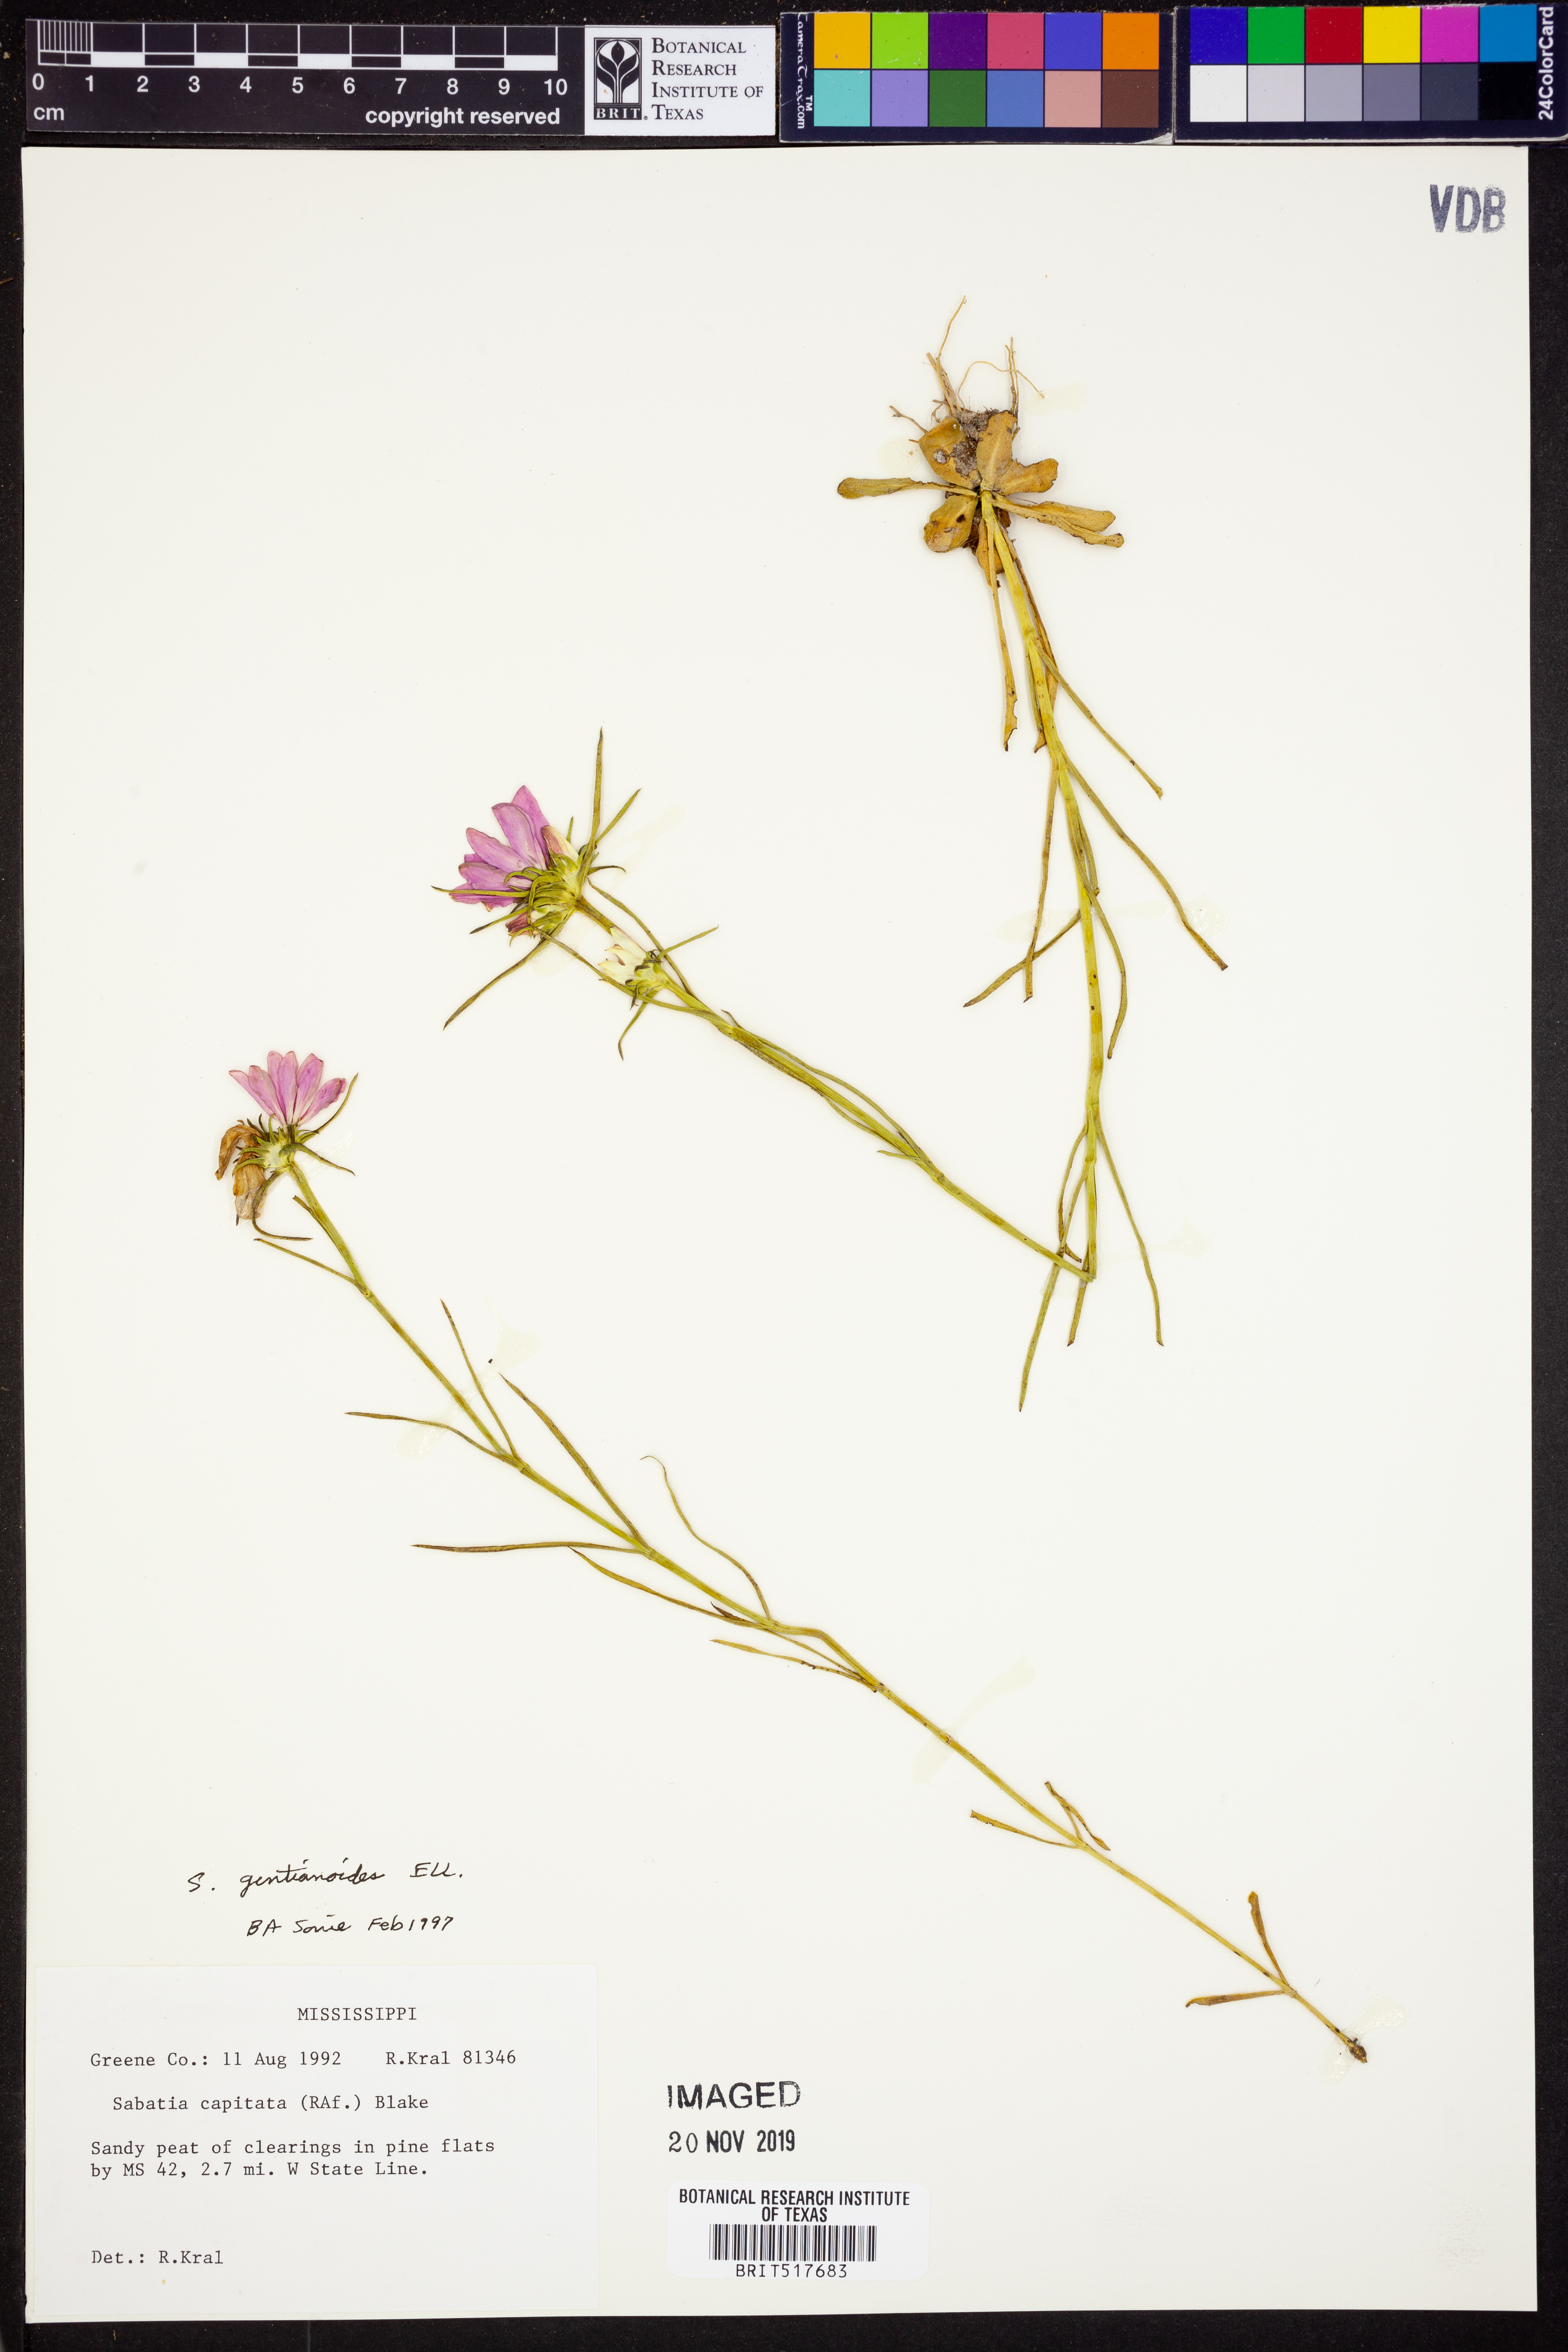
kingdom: Plantae
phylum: Tracheophyta
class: Magnoliopsida
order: Gentianales
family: Gentianaceae
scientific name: Gentianaceae
